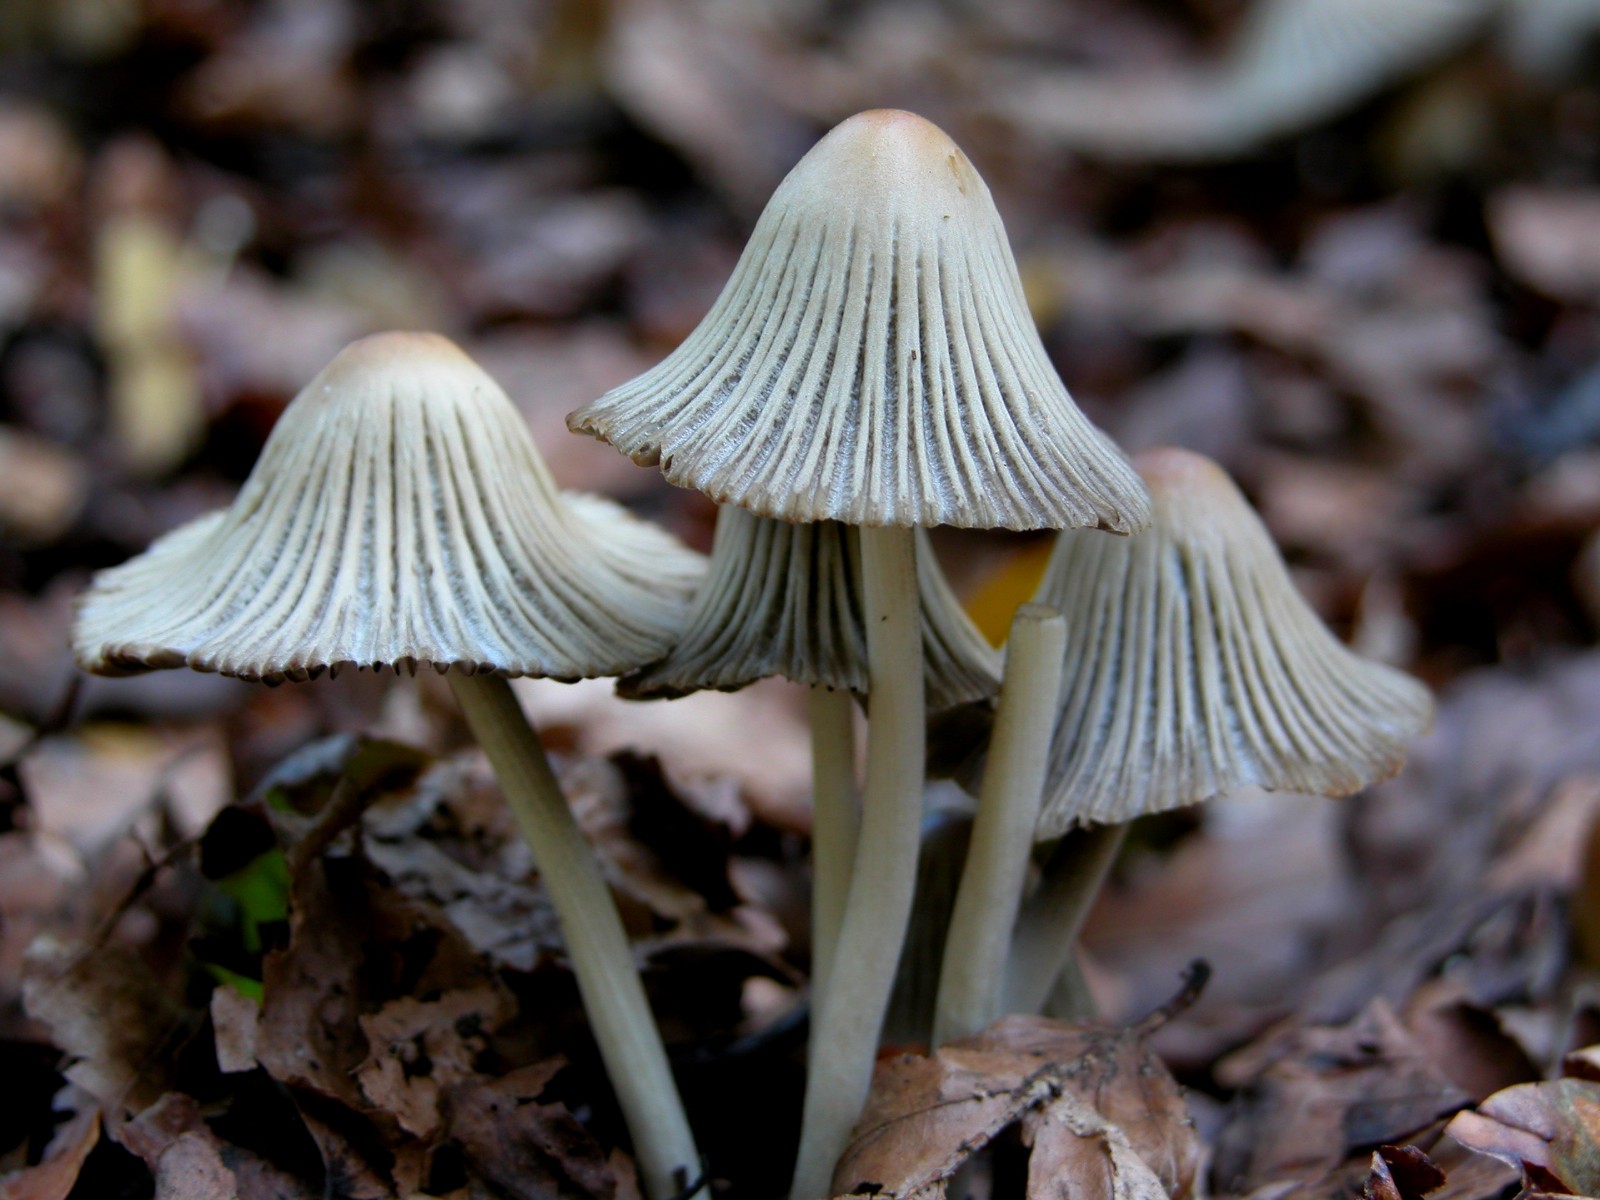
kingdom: Fungi
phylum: Basidiomycota
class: Agaricomycetes
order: Agaricales
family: Psathyrellaceae
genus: Tulosesus
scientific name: Tulosesus impatiens
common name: furet blækhat
